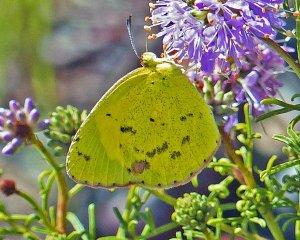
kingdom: Animalia
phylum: Arthropoda
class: Insecta
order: Lepidoptera
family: Pieridae
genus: Pyrisitia
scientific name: Pyrisitia lisa
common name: Little Yellow
